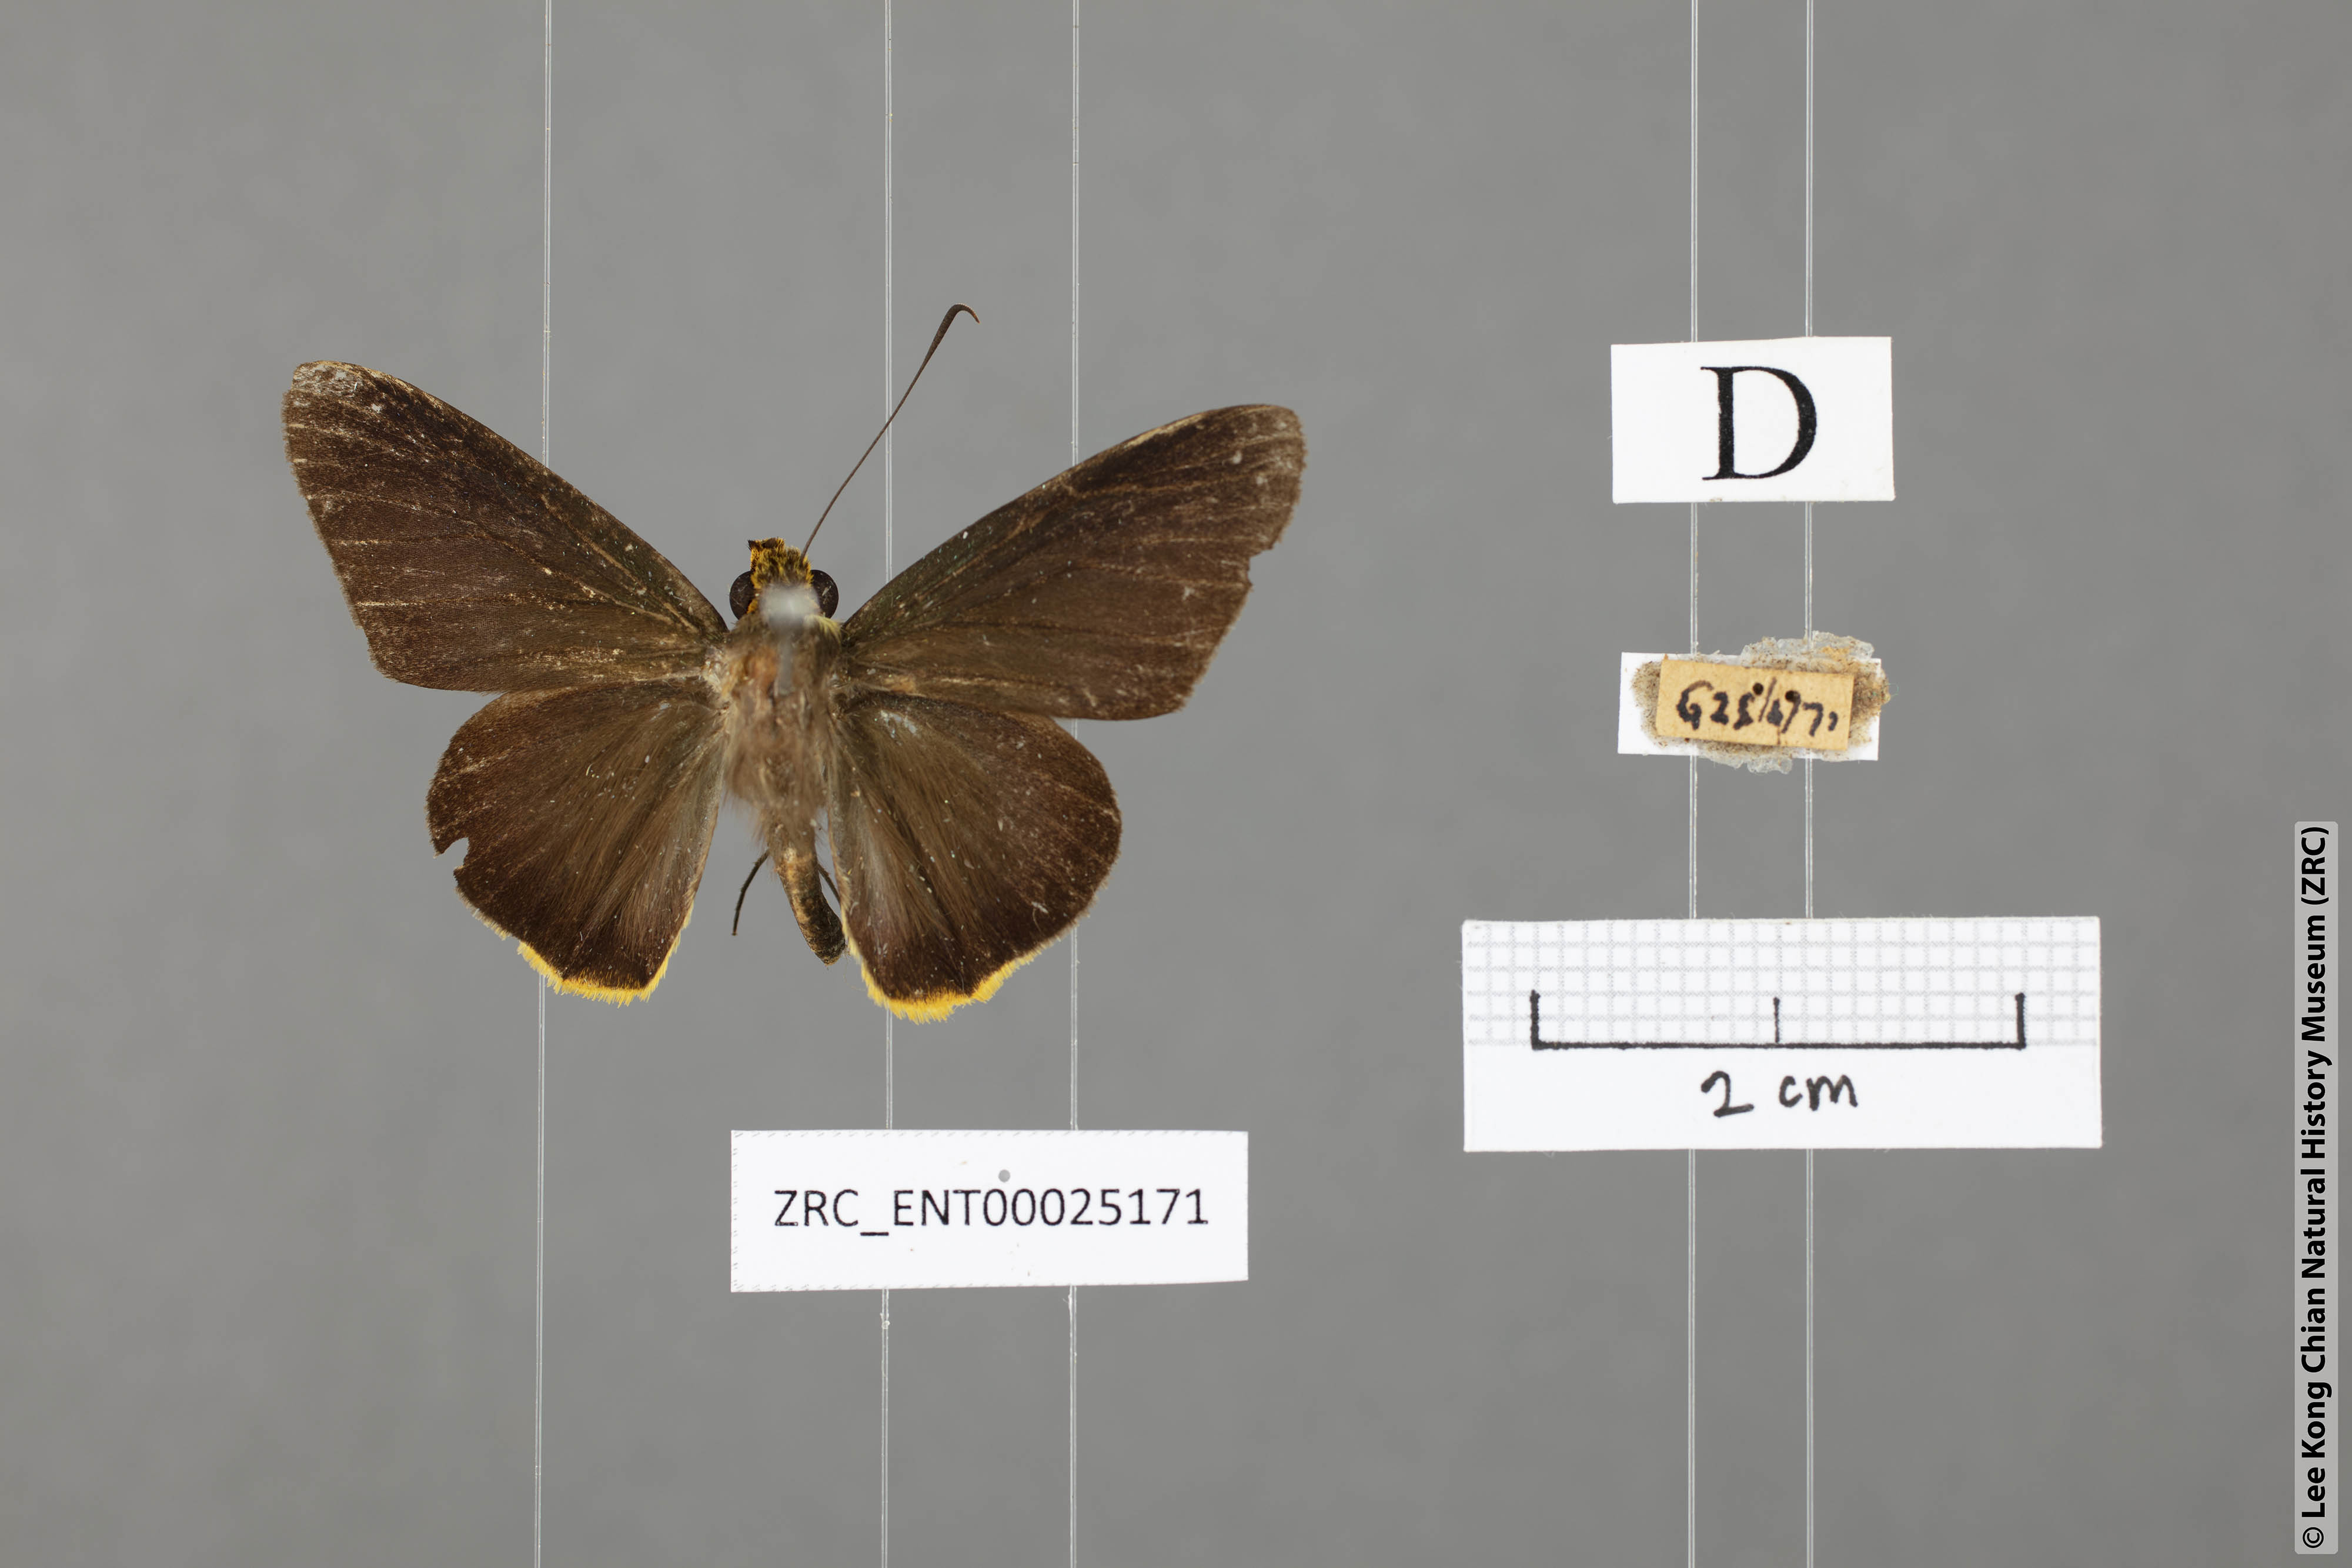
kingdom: Animalia
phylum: Arthropoda
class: Insecta
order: Lepidoptera
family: Hesperiidae
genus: Pirdana
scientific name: Pirdana hyela
